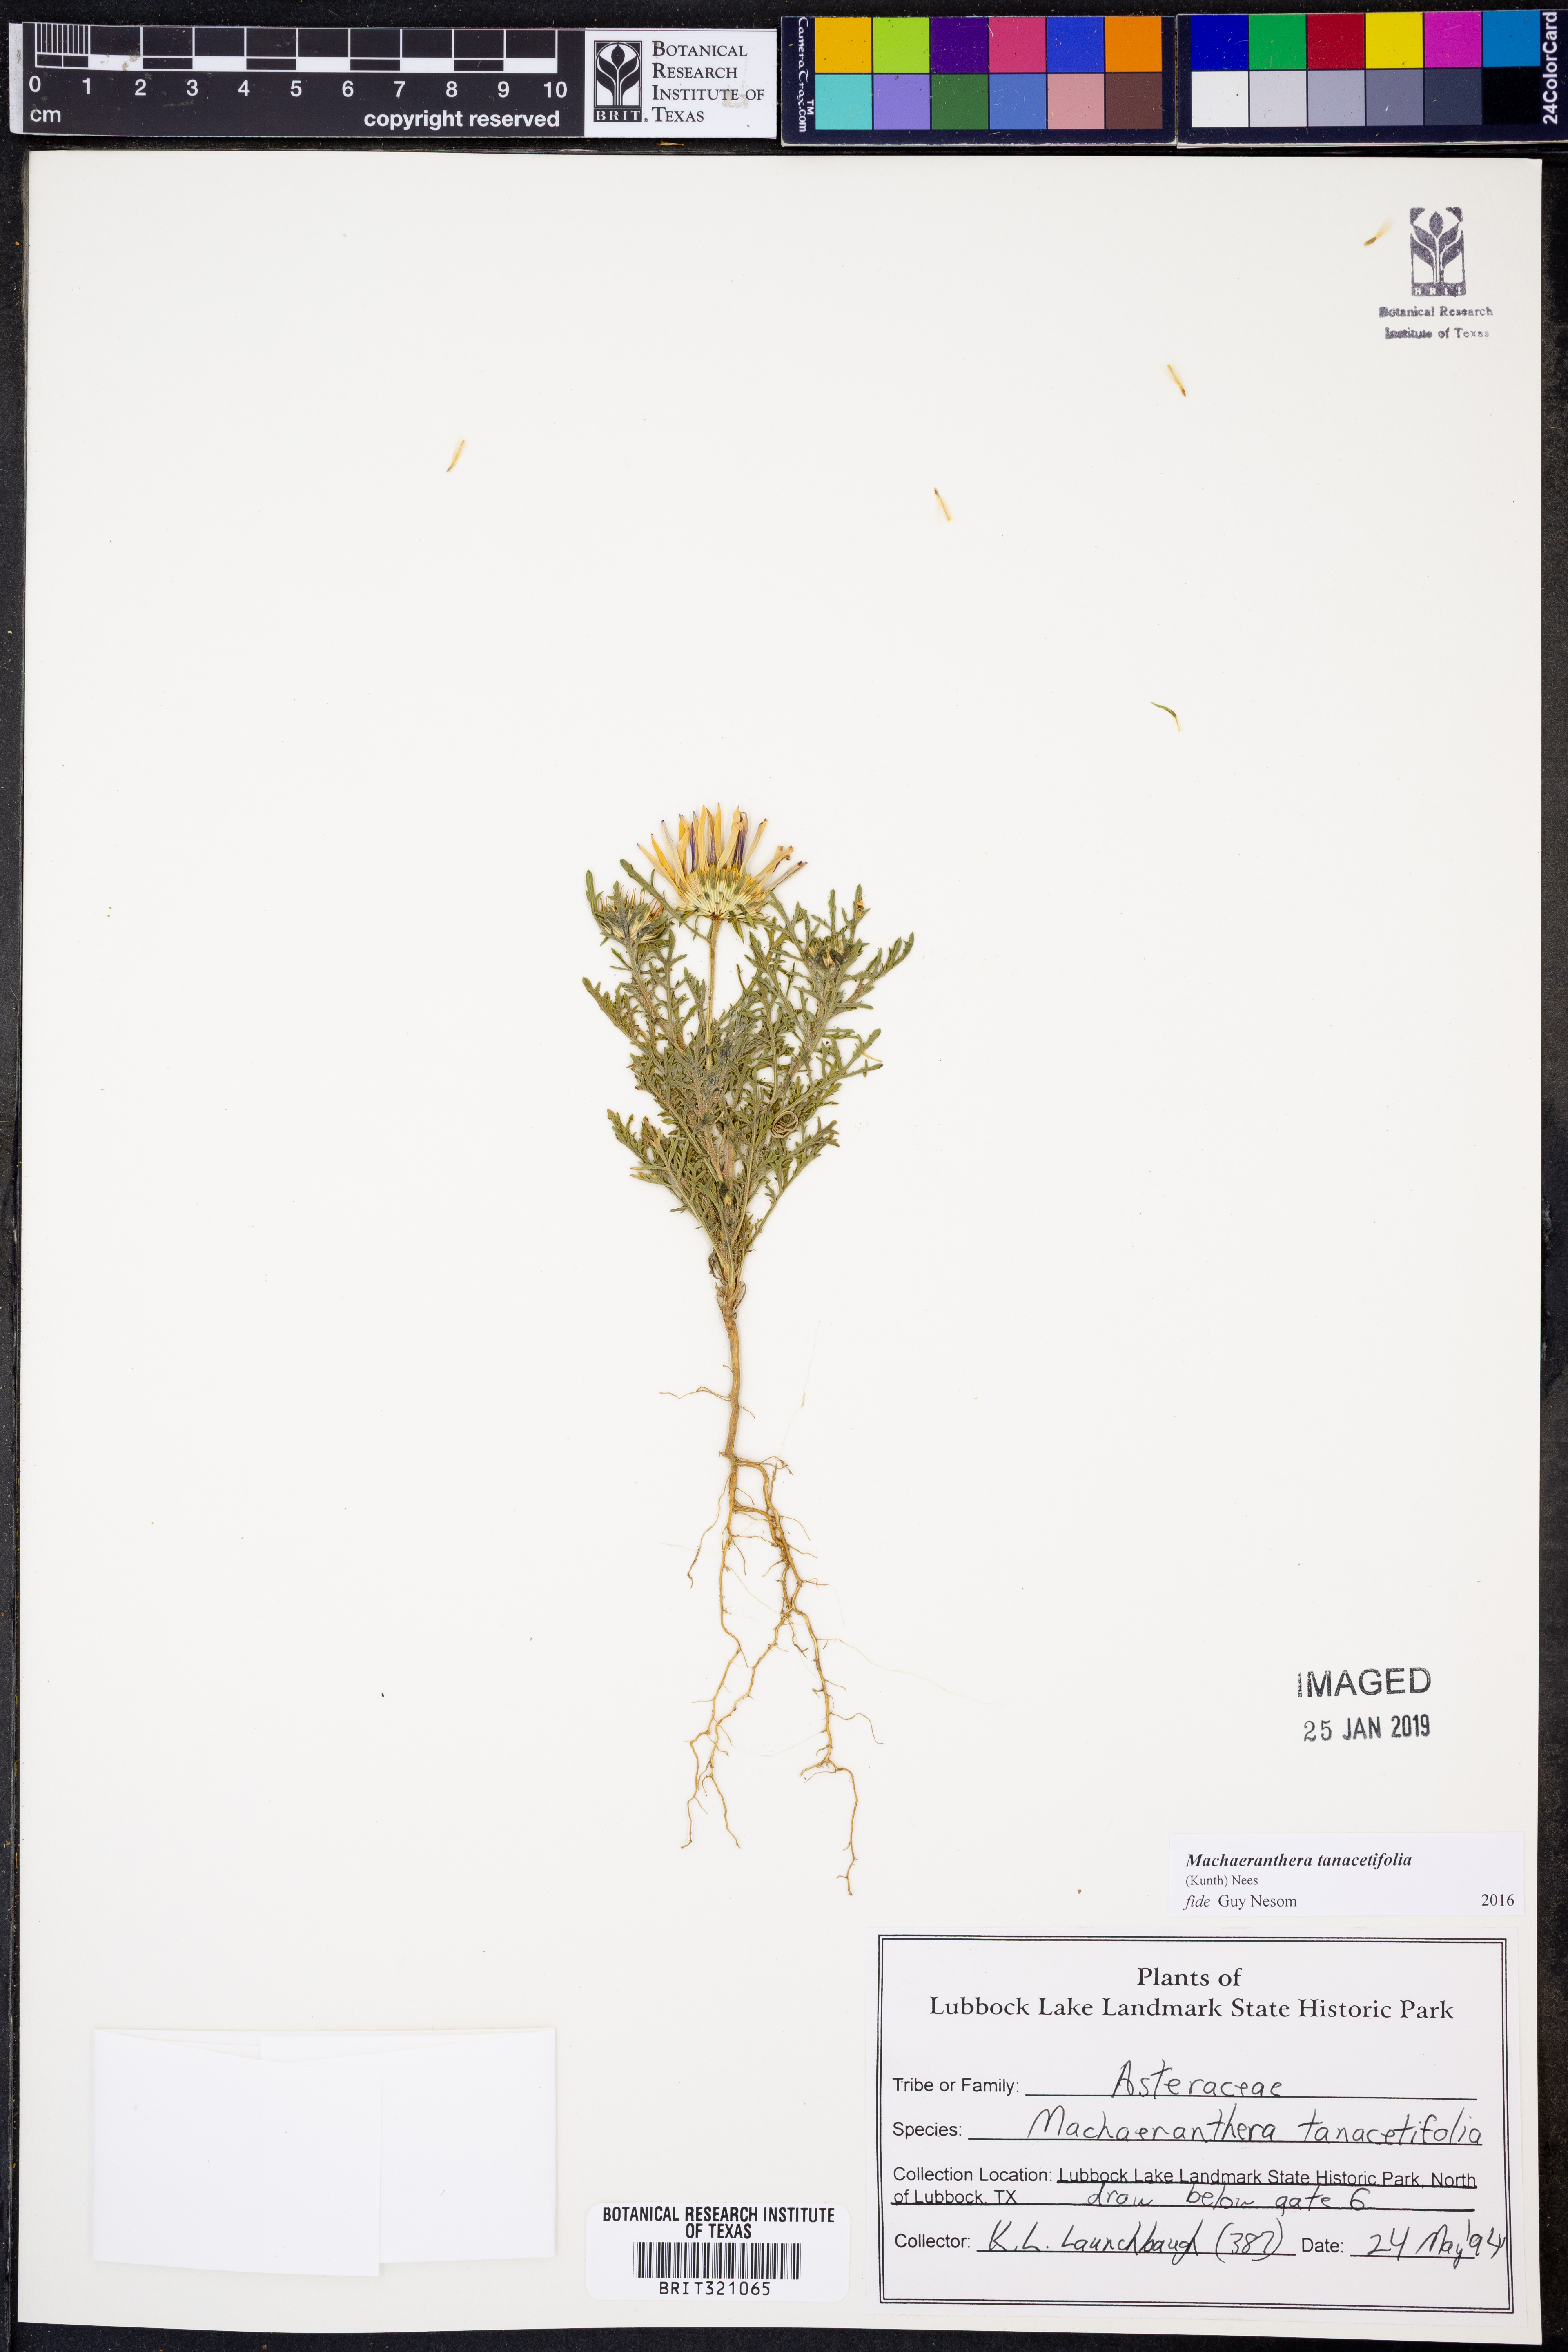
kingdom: Plantae
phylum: Tracheophyta
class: Magnoliopsida
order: Asterales
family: Asteraceae
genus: Machaeranthera
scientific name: Machaeranthera tanacetifolia
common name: Tansy-aster
